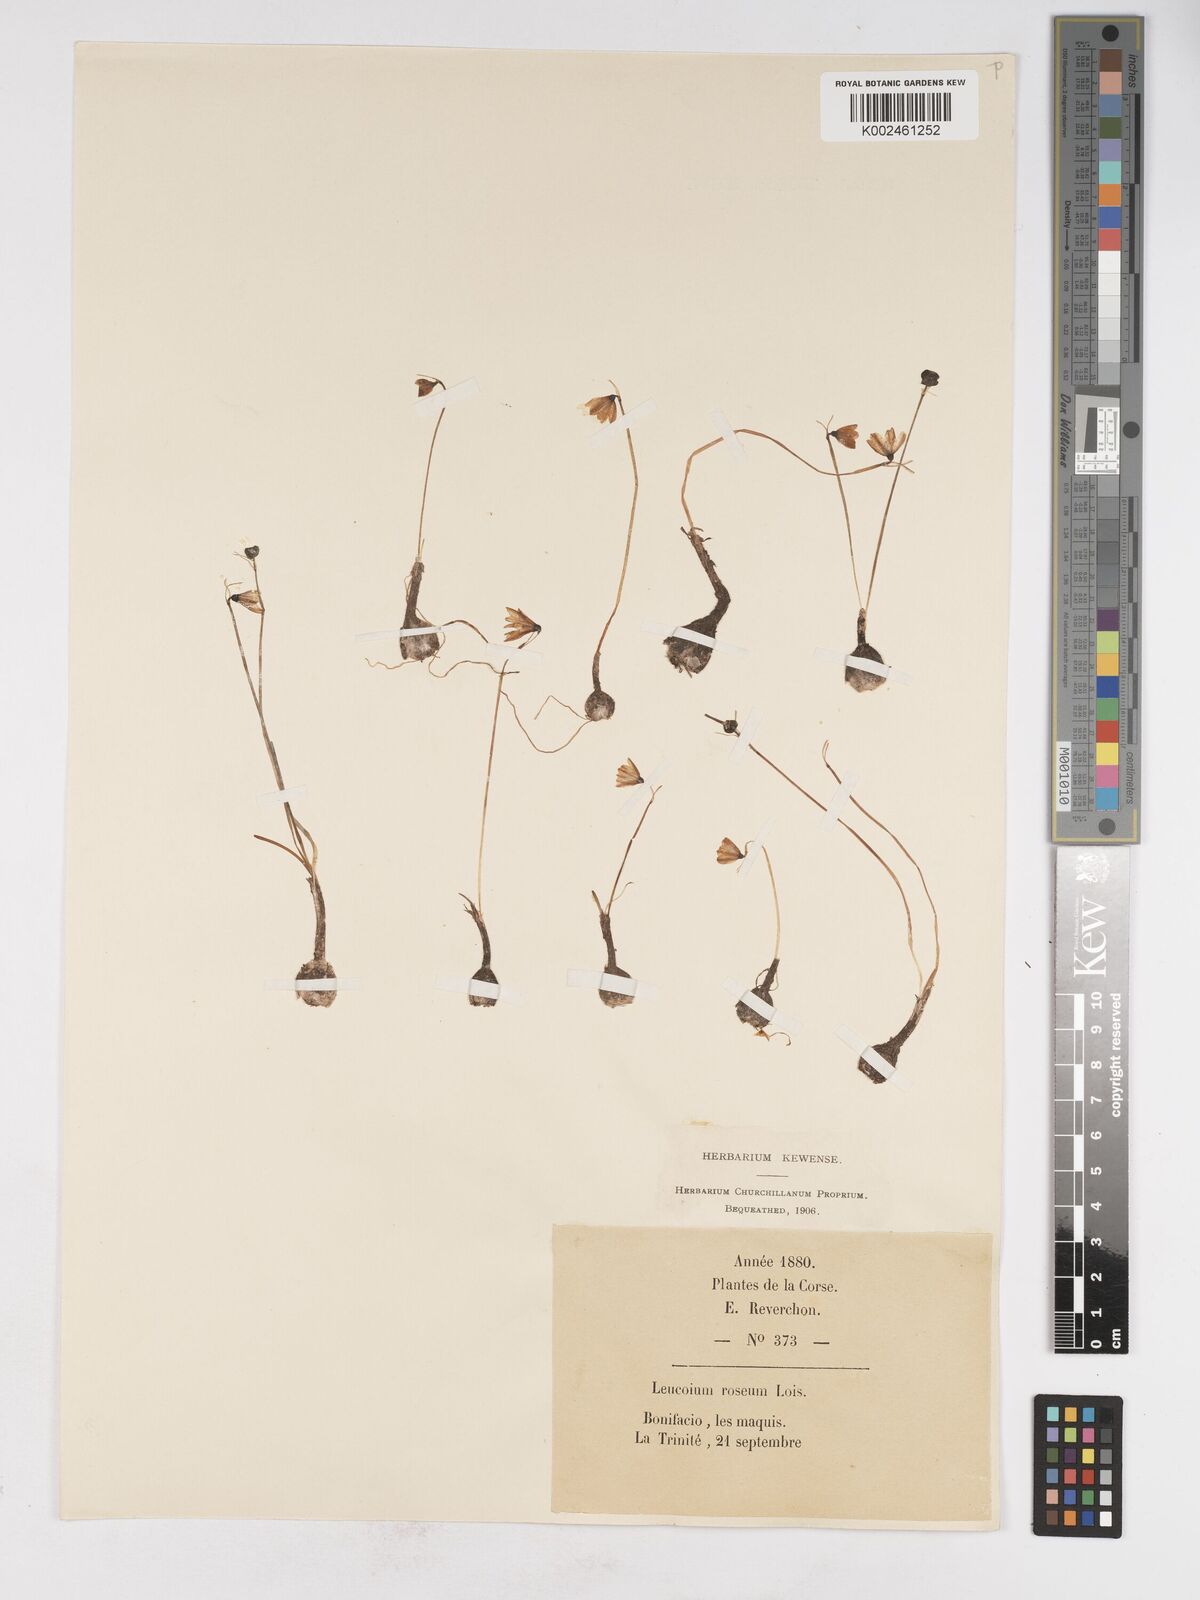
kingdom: Plantae
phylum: Tracheophyta
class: Liliopsida
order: Asparagales
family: Amaryllidaceae
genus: Acis
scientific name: Acis rosea
